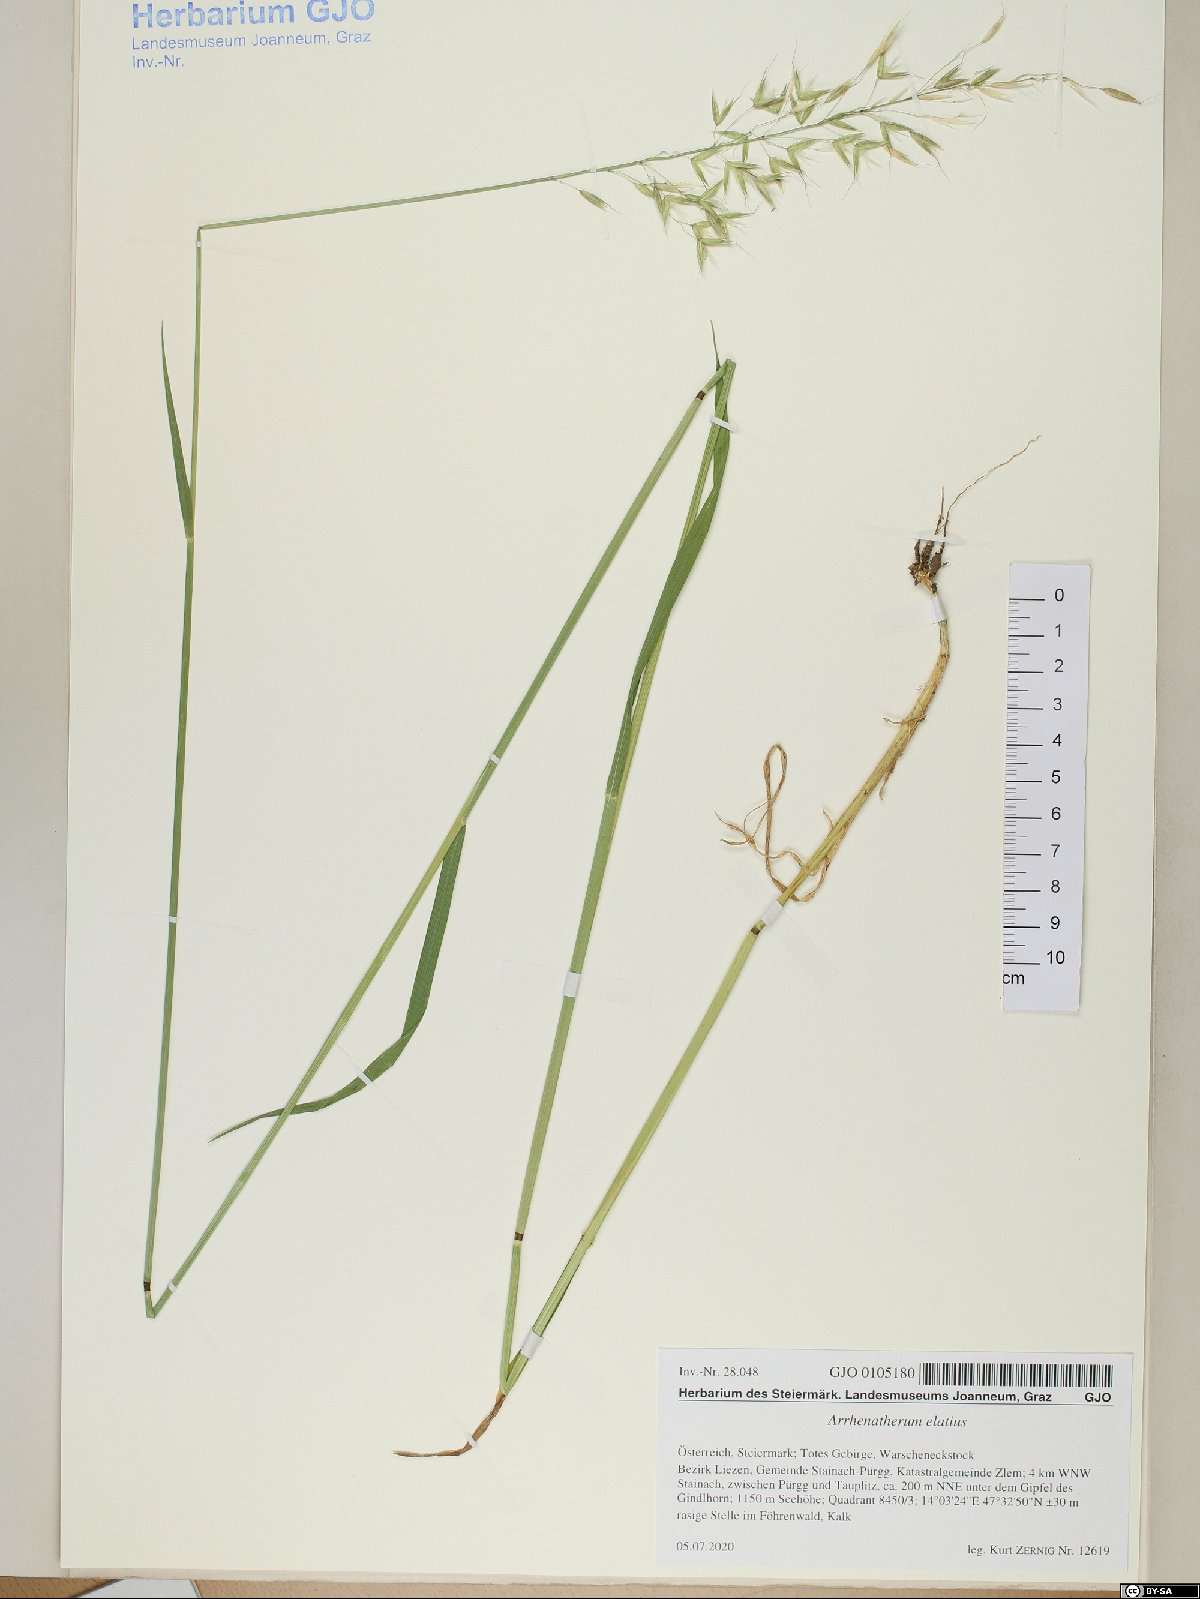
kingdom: Plantae
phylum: Tracheophyta
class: Liliopsida
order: Poales
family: Poaceae
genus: Arrhenatherum
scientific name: Arrhenatherum elatius
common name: Tall oatgrass
